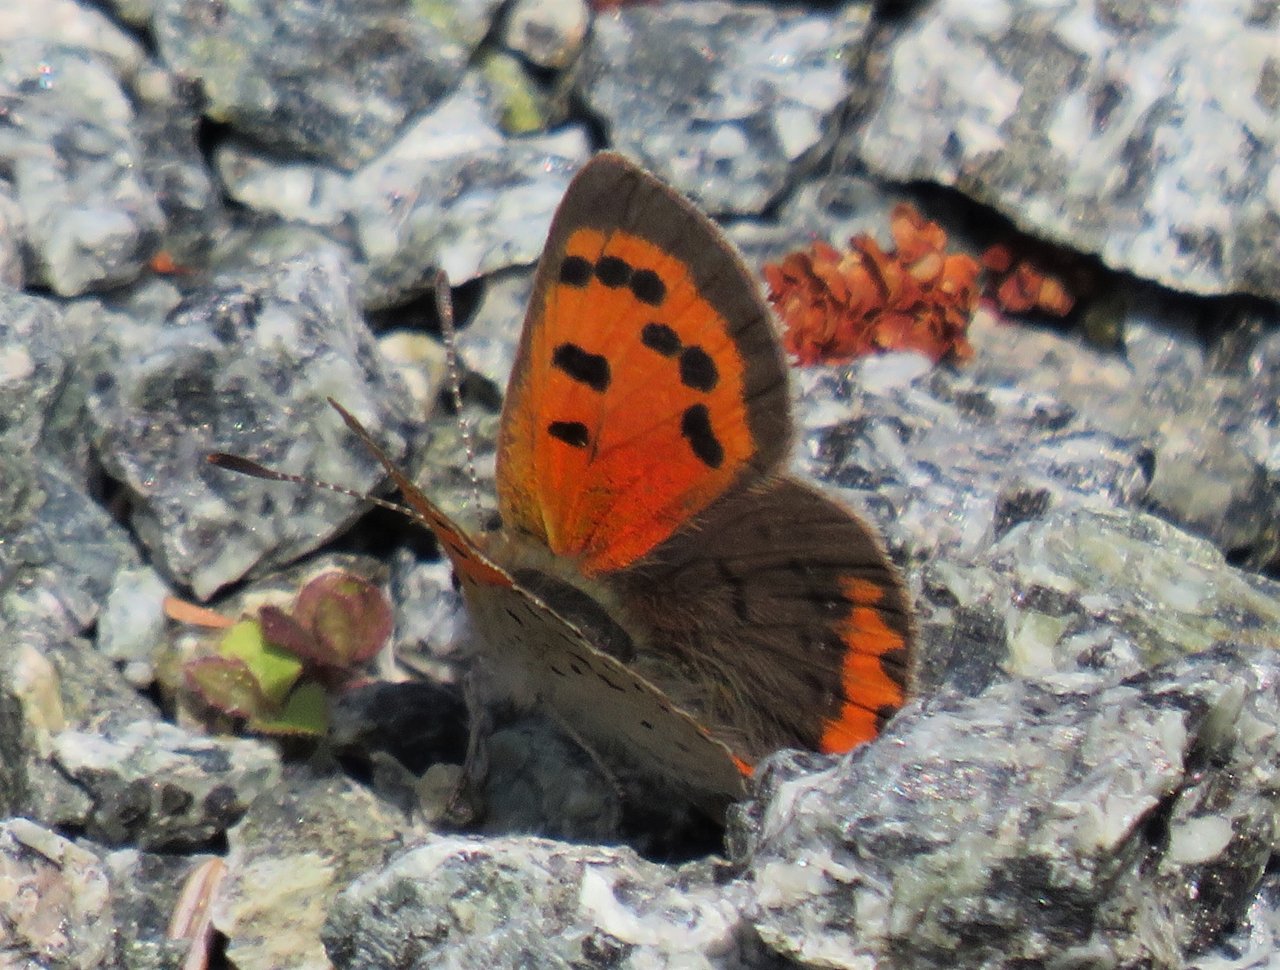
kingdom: Animalia
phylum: Arthropoda
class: Insecta
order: Lepidoptera
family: Lycaenidae
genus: Lycaena
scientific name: Lycaena phlaeas
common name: American Copper
